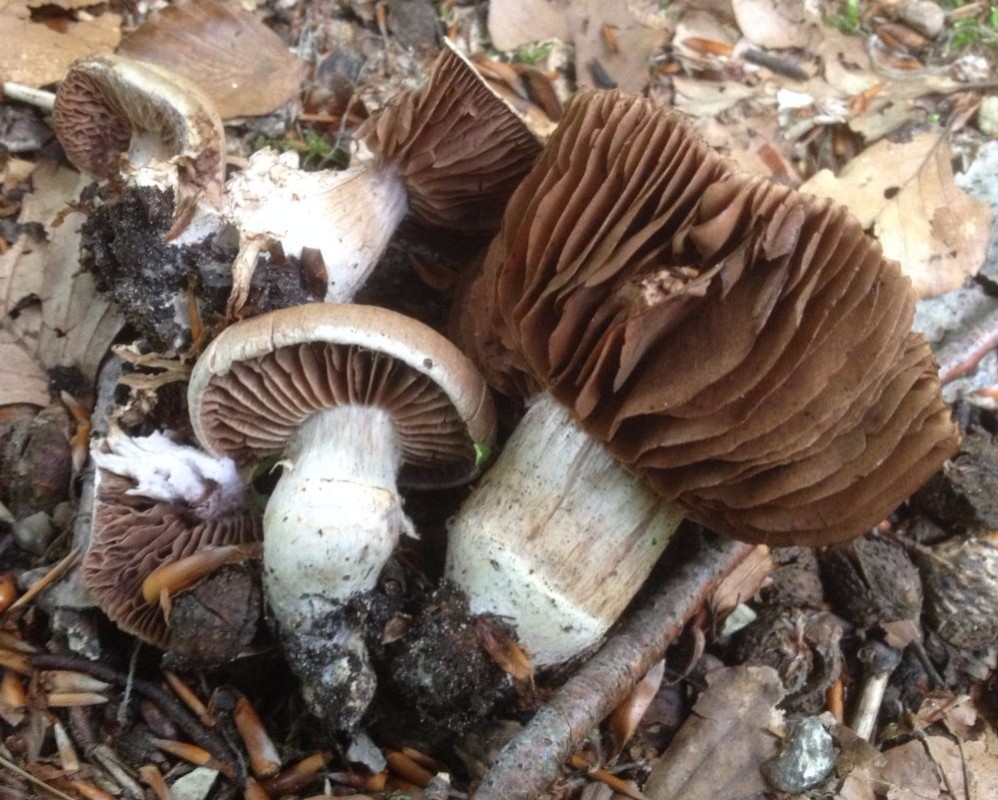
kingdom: Fungi
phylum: Basidiomycota
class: Agaricomycetes
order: Agaricales
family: Cortinariaceae
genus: Cortinarius
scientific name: Cortinarius torvus
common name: champignonagtig slørhat
